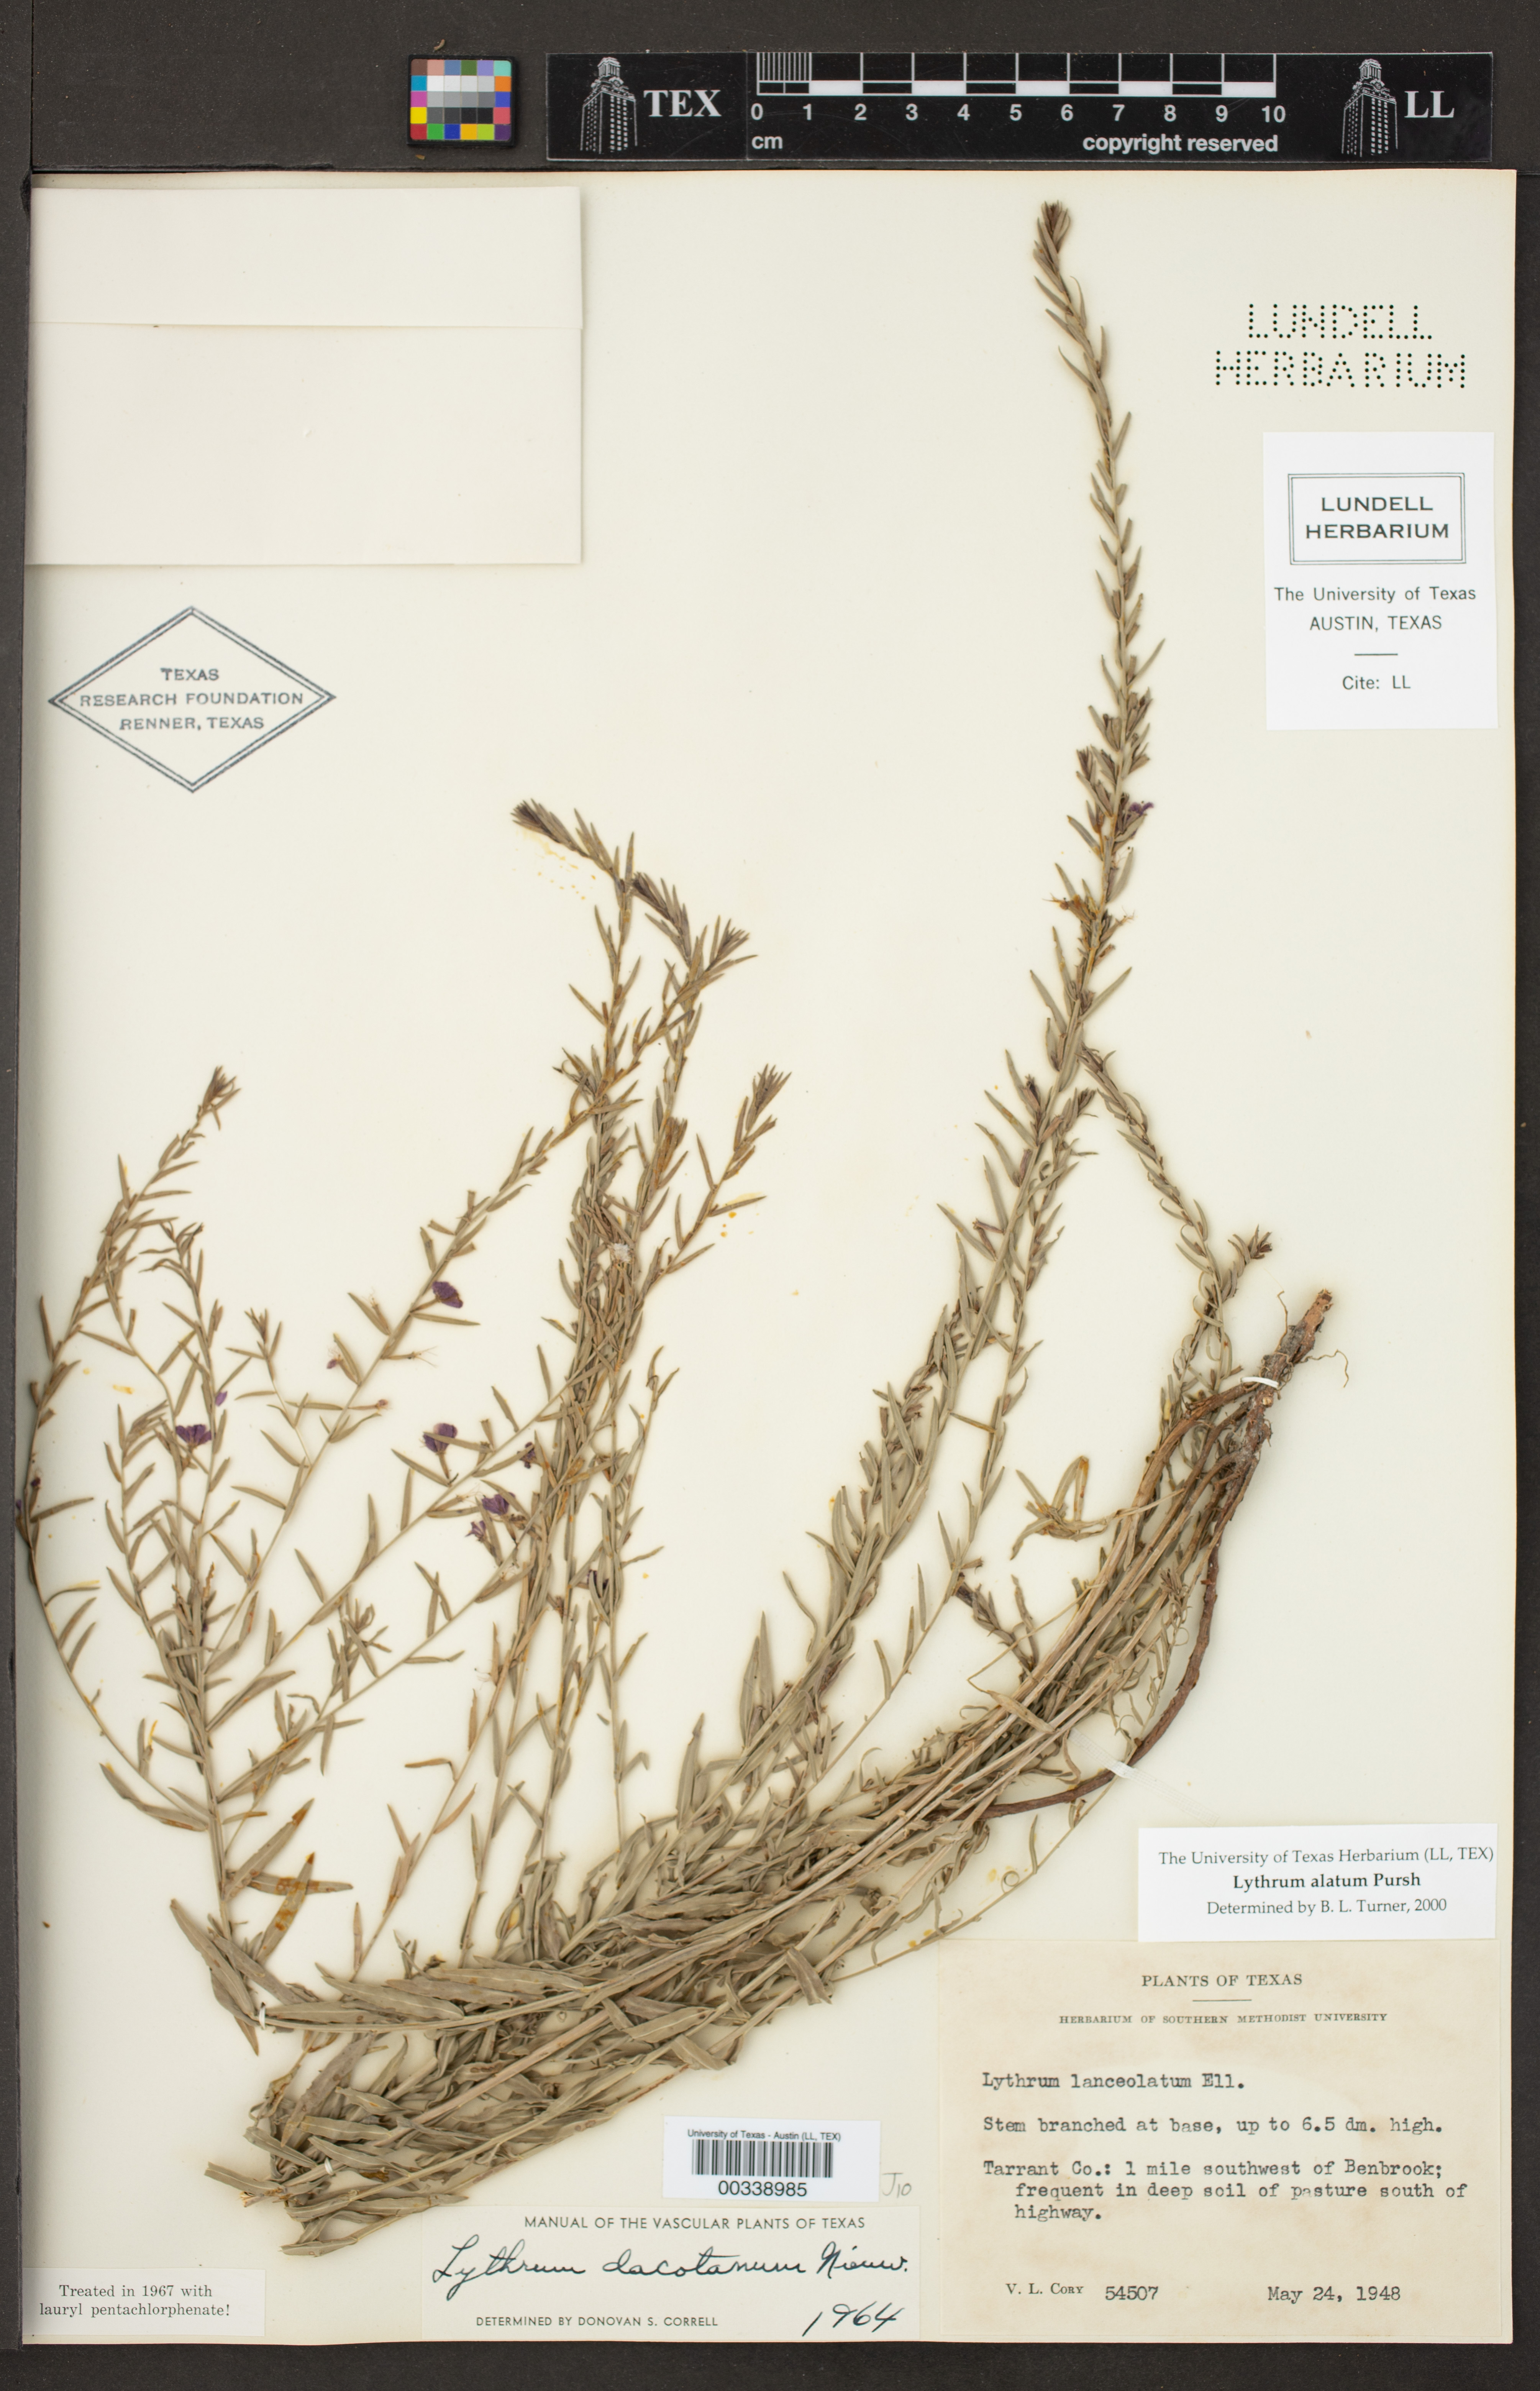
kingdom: Plantae
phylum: Tracheophyta
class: Magnoliopsida
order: Myrtales
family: Lythraceae
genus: Lythrum
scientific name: Lythrum alatum
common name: Winged loosestrife
